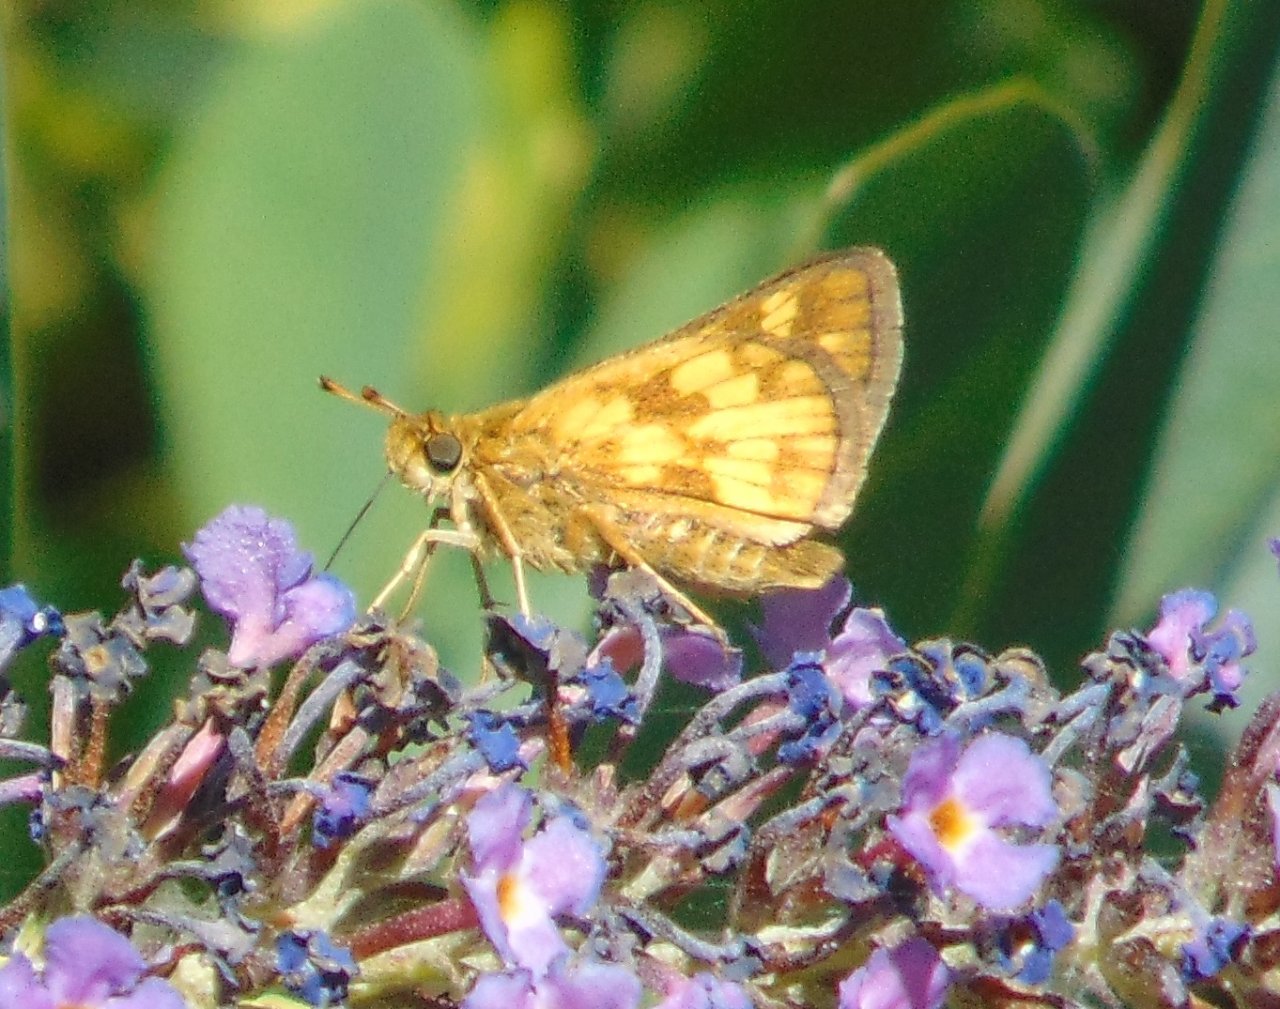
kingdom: Animalia
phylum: Arthropoda
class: Insecta
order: Lepidoptera
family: Hesperiidae
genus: Polites
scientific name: Polites coras
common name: Peck's Skipper
